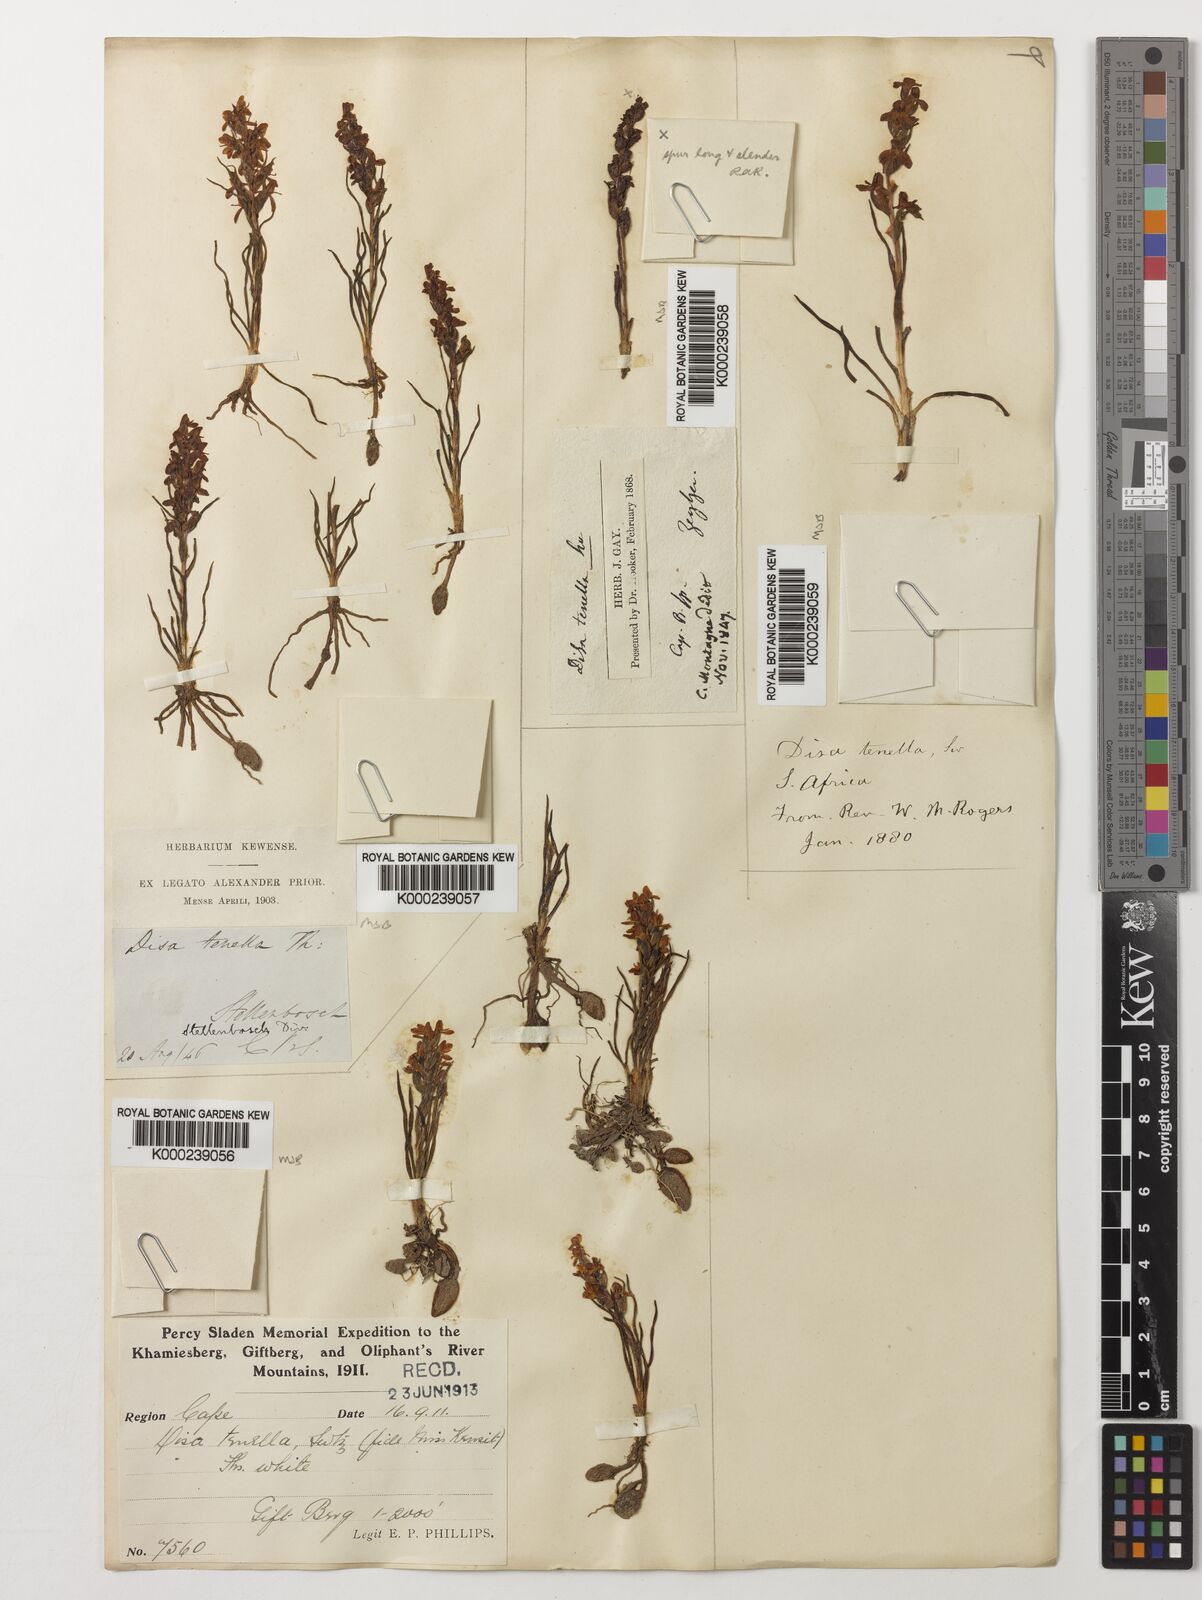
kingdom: Plantae
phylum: Tracheophyta
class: Liliopsida
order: Asparagales
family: Orchidaceae
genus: Disa
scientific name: Disa tenella
